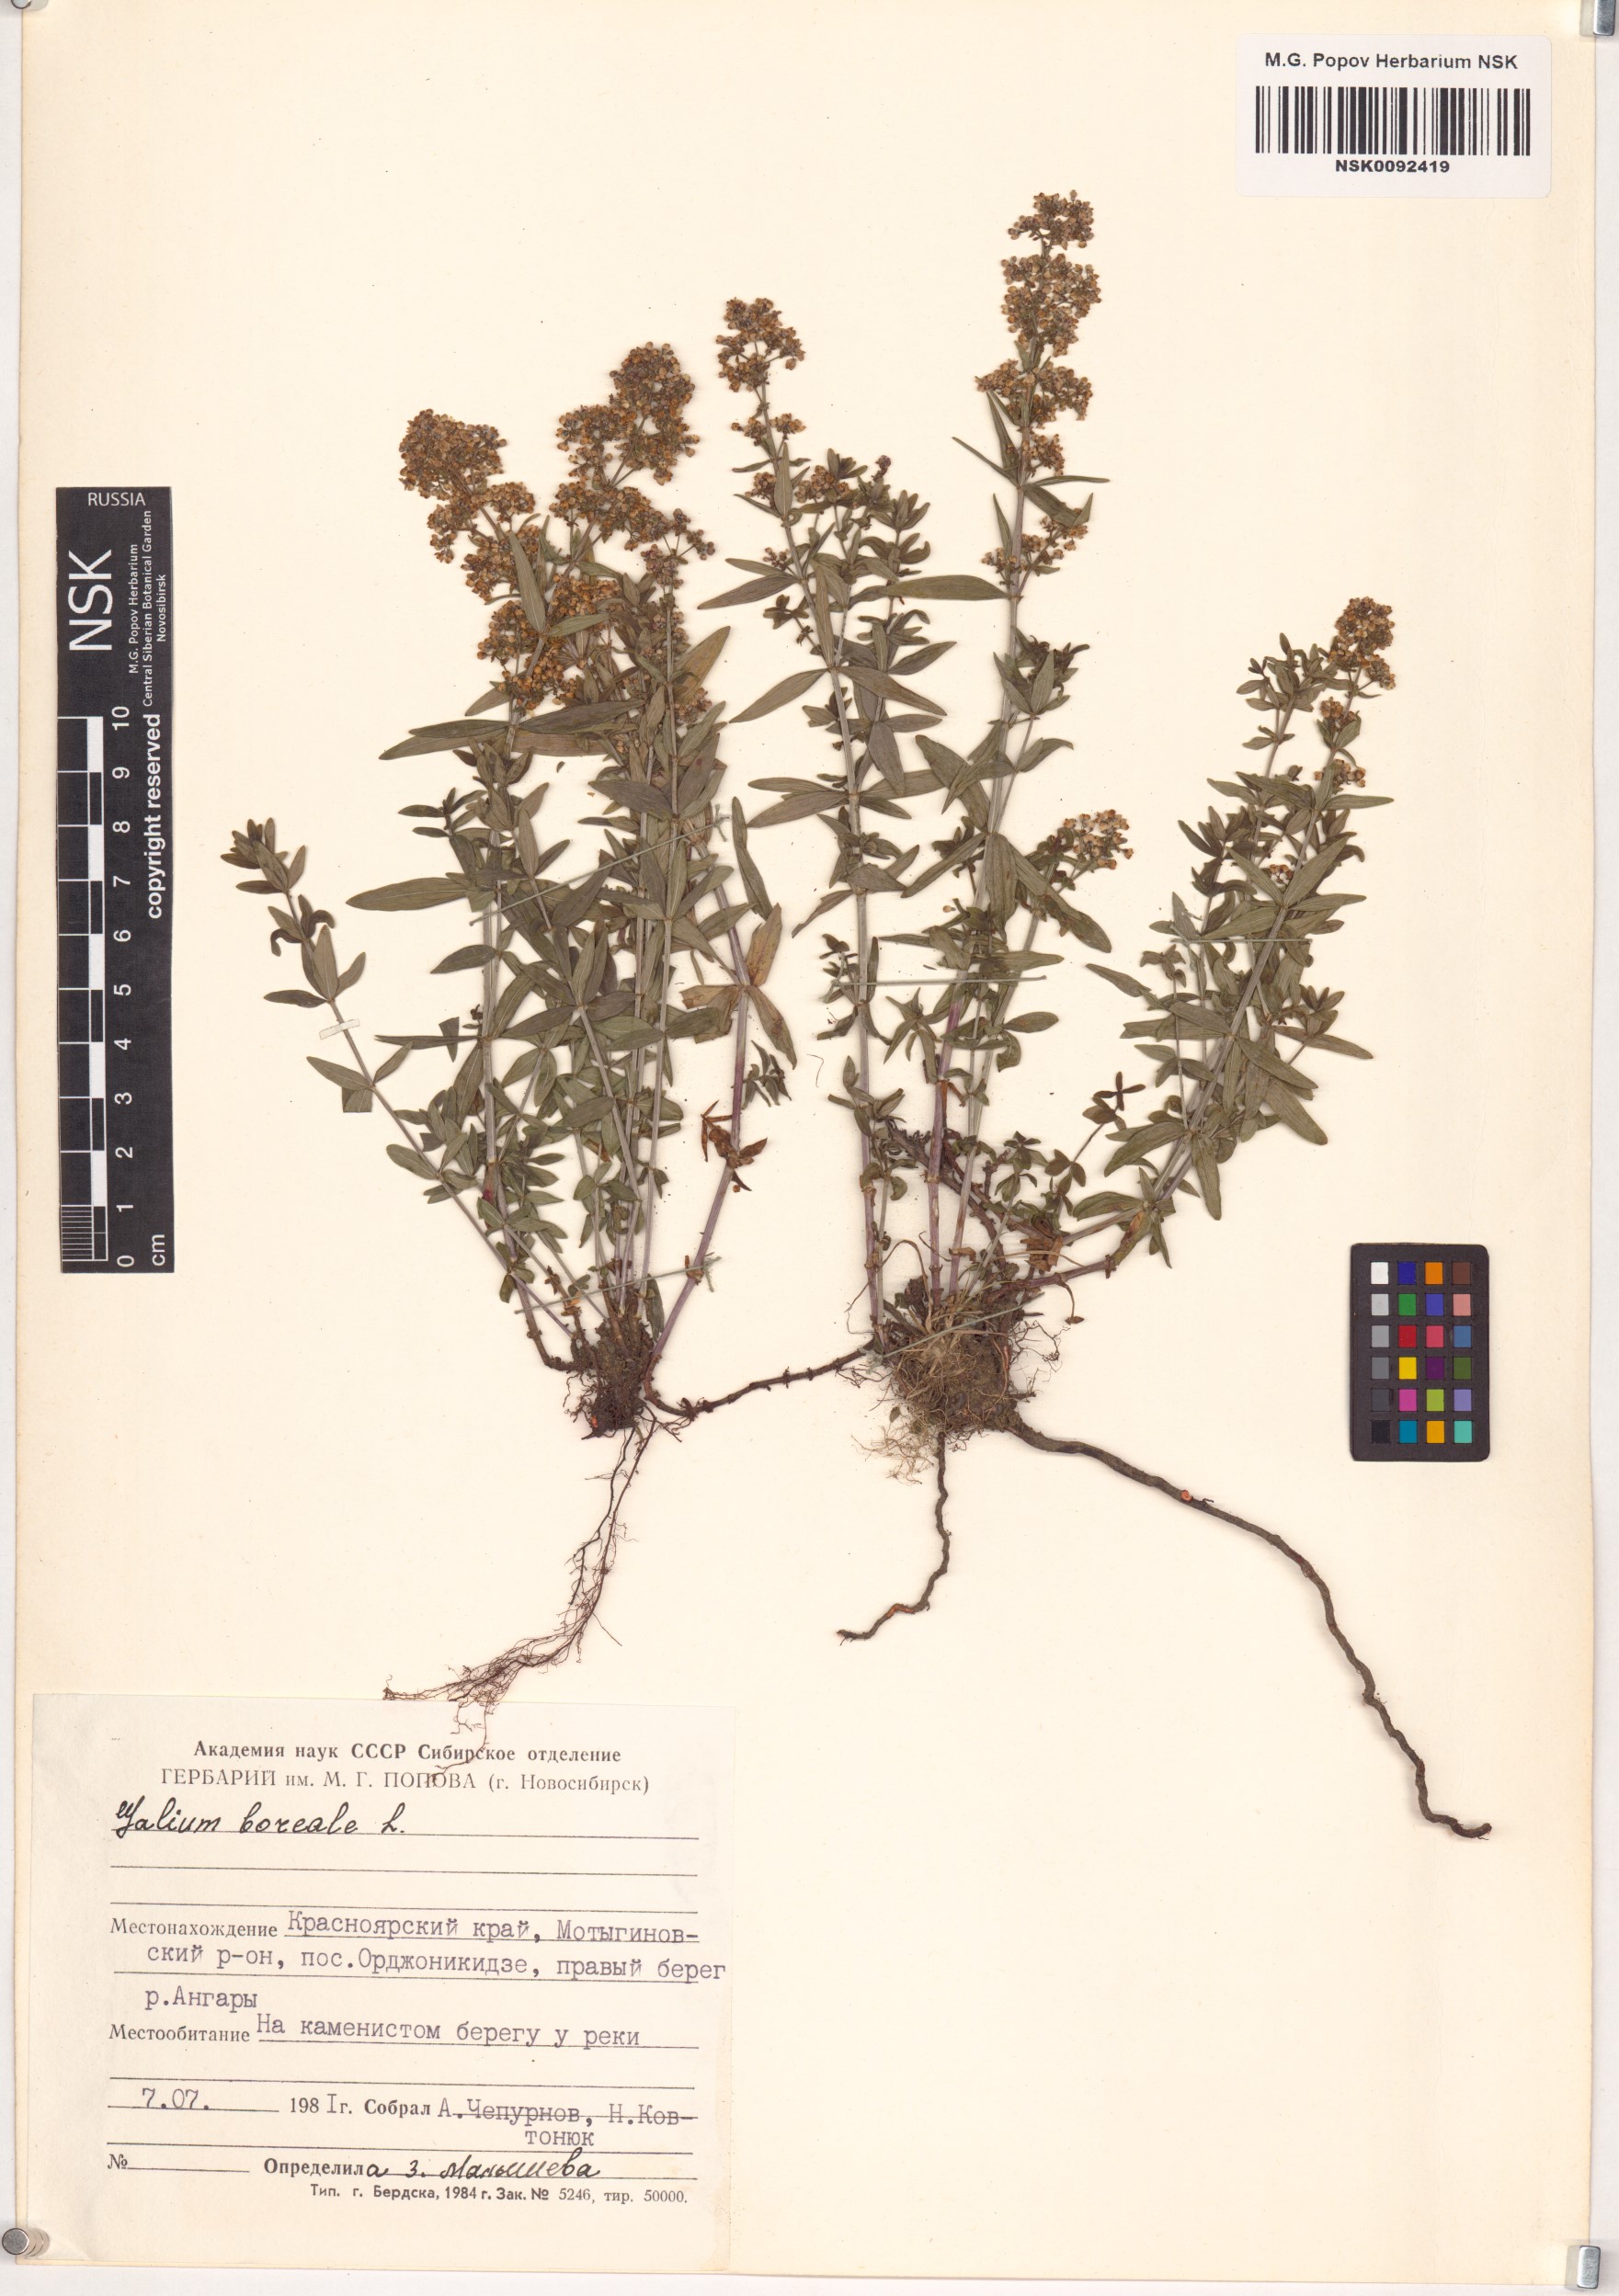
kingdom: Plantae
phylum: Tracheophyta
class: Magnoliopsida
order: Gentianales
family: Rubiaceae
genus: Galium
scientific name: Galium boreale
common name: Northern bedstraw
